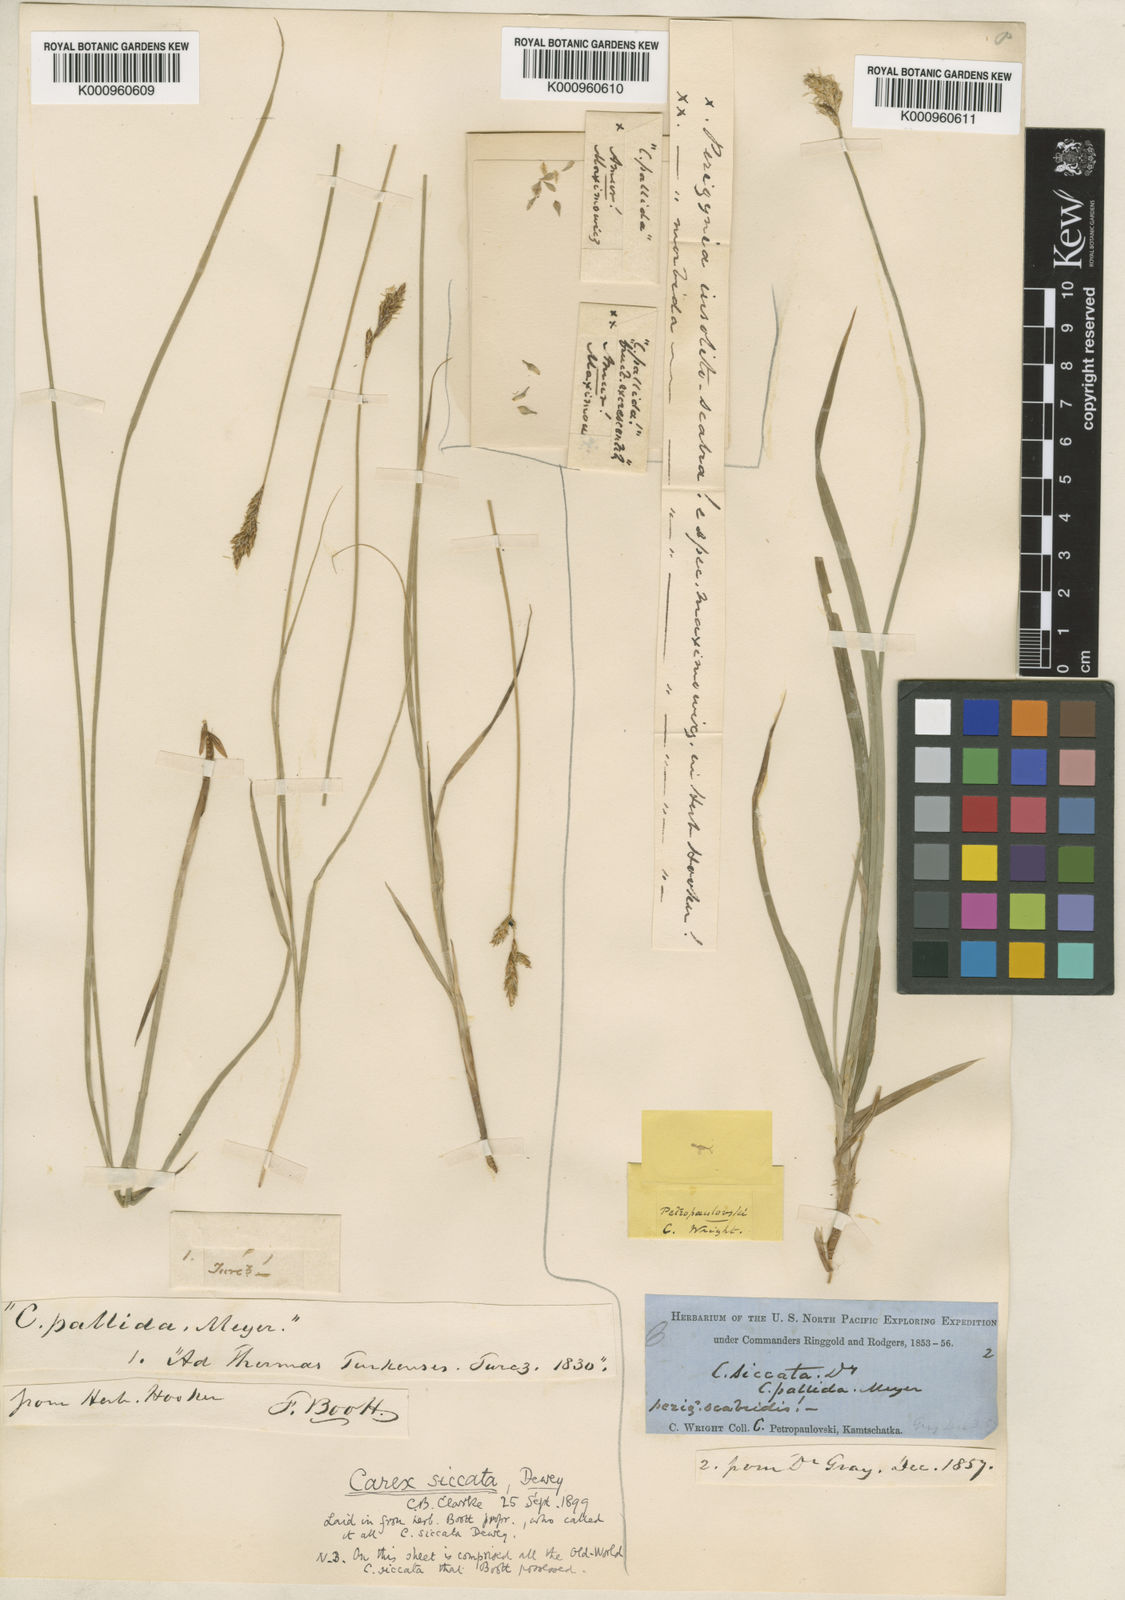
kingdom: Plantae
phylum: Tracheophyta
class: Liliopsida
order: Poales
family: Cyperaceae
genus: Carex
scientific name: Carex accrescens
